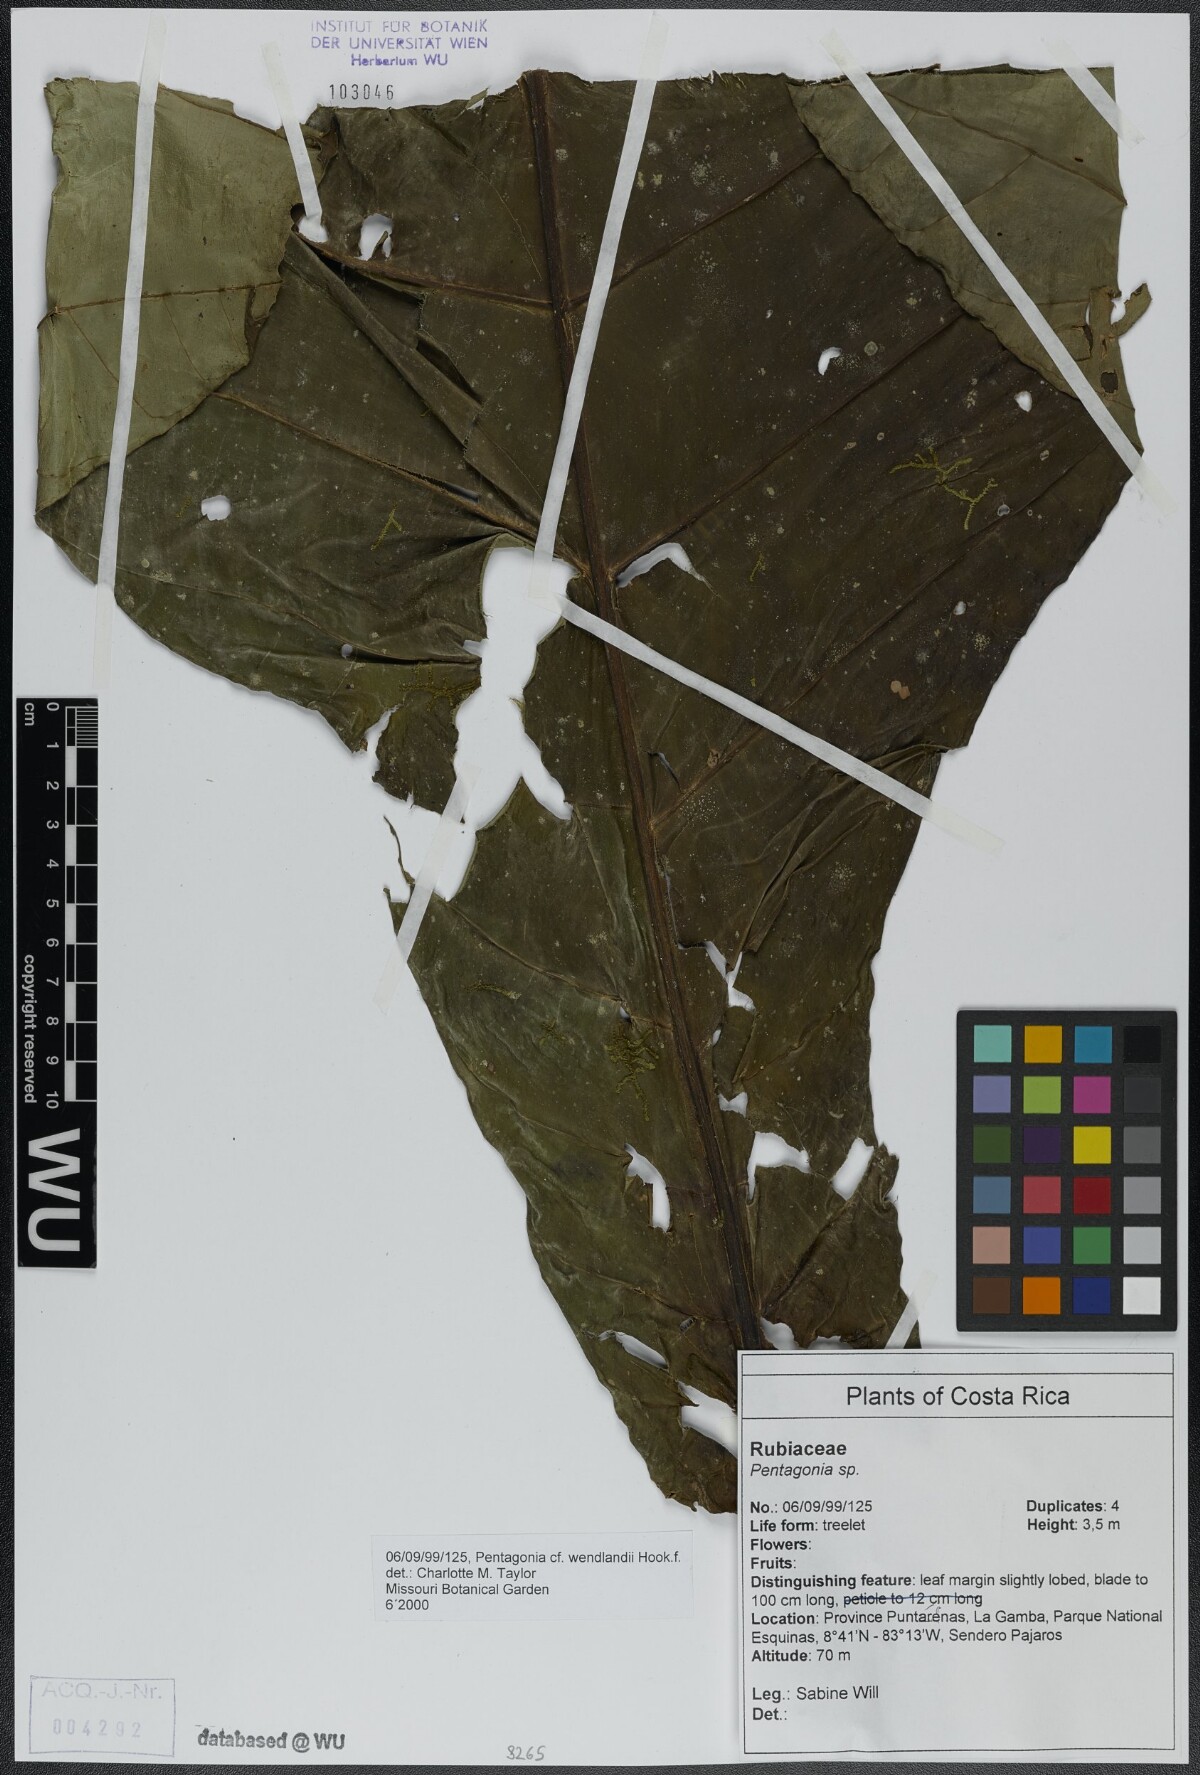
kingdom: Plantae
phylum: Tracheophyta
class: Magnoliopsida
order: Gentianales
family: Rubiaceae
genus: Pentagonia
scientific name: Pentagonia wendlandii
